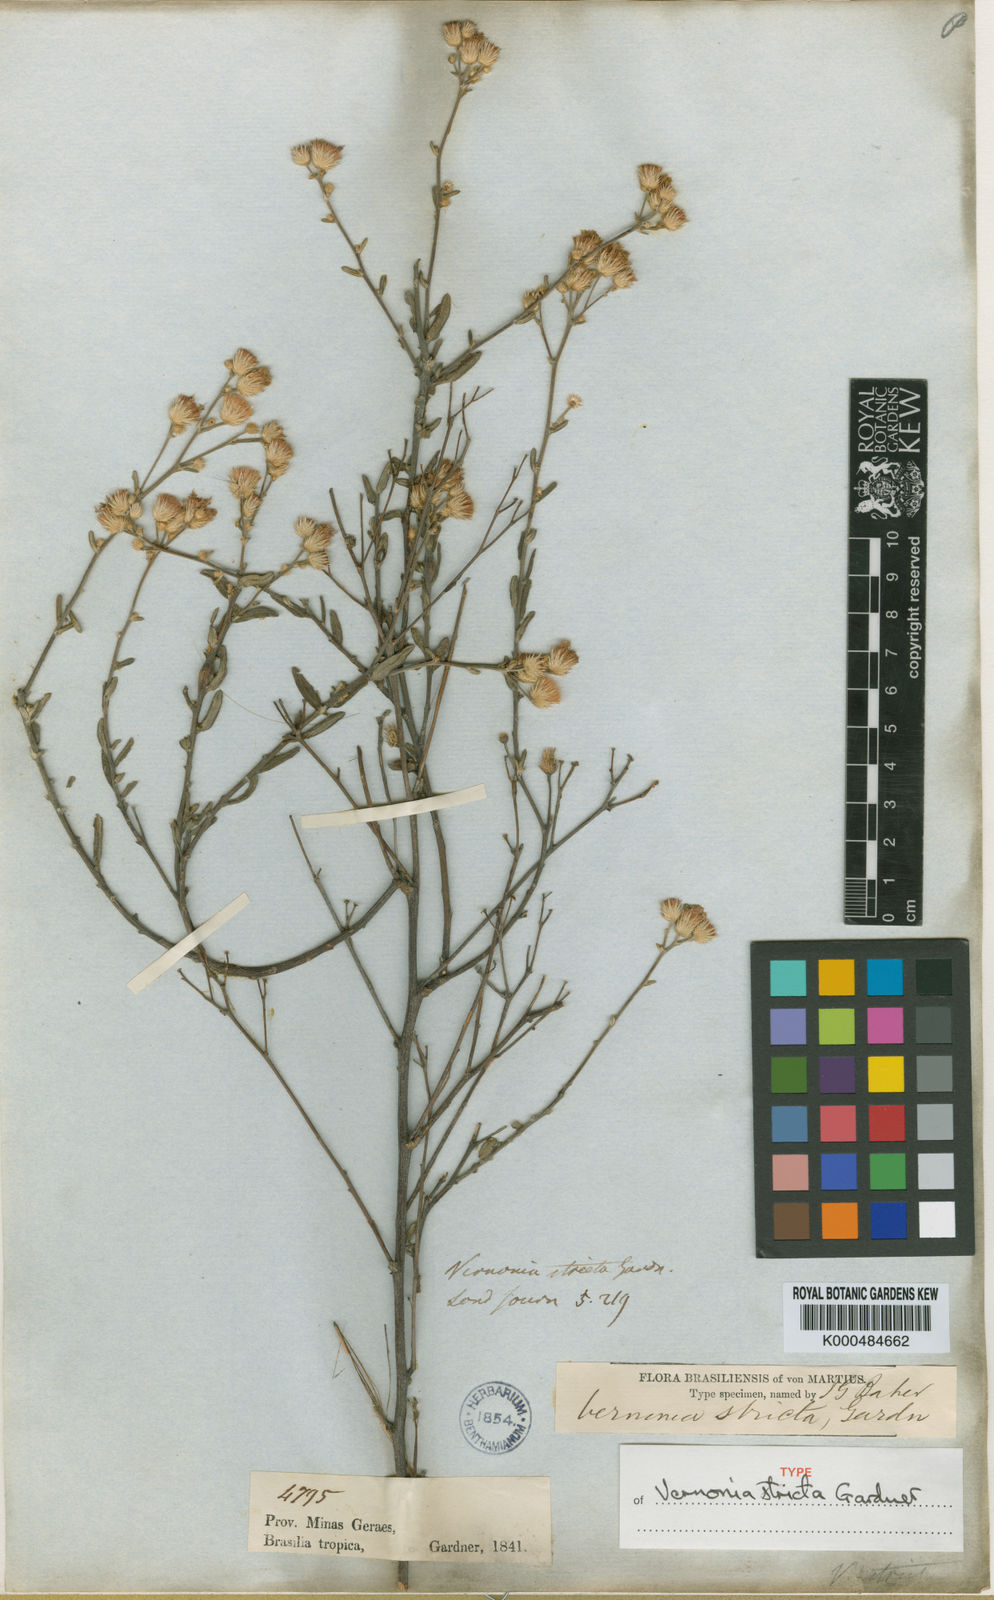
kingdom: Plantae
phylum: Tracheophyta
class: Magnoliopsida
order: Asterales
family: Asteraceae
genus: Echinocoryne
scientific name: Echinocoryne stricta
